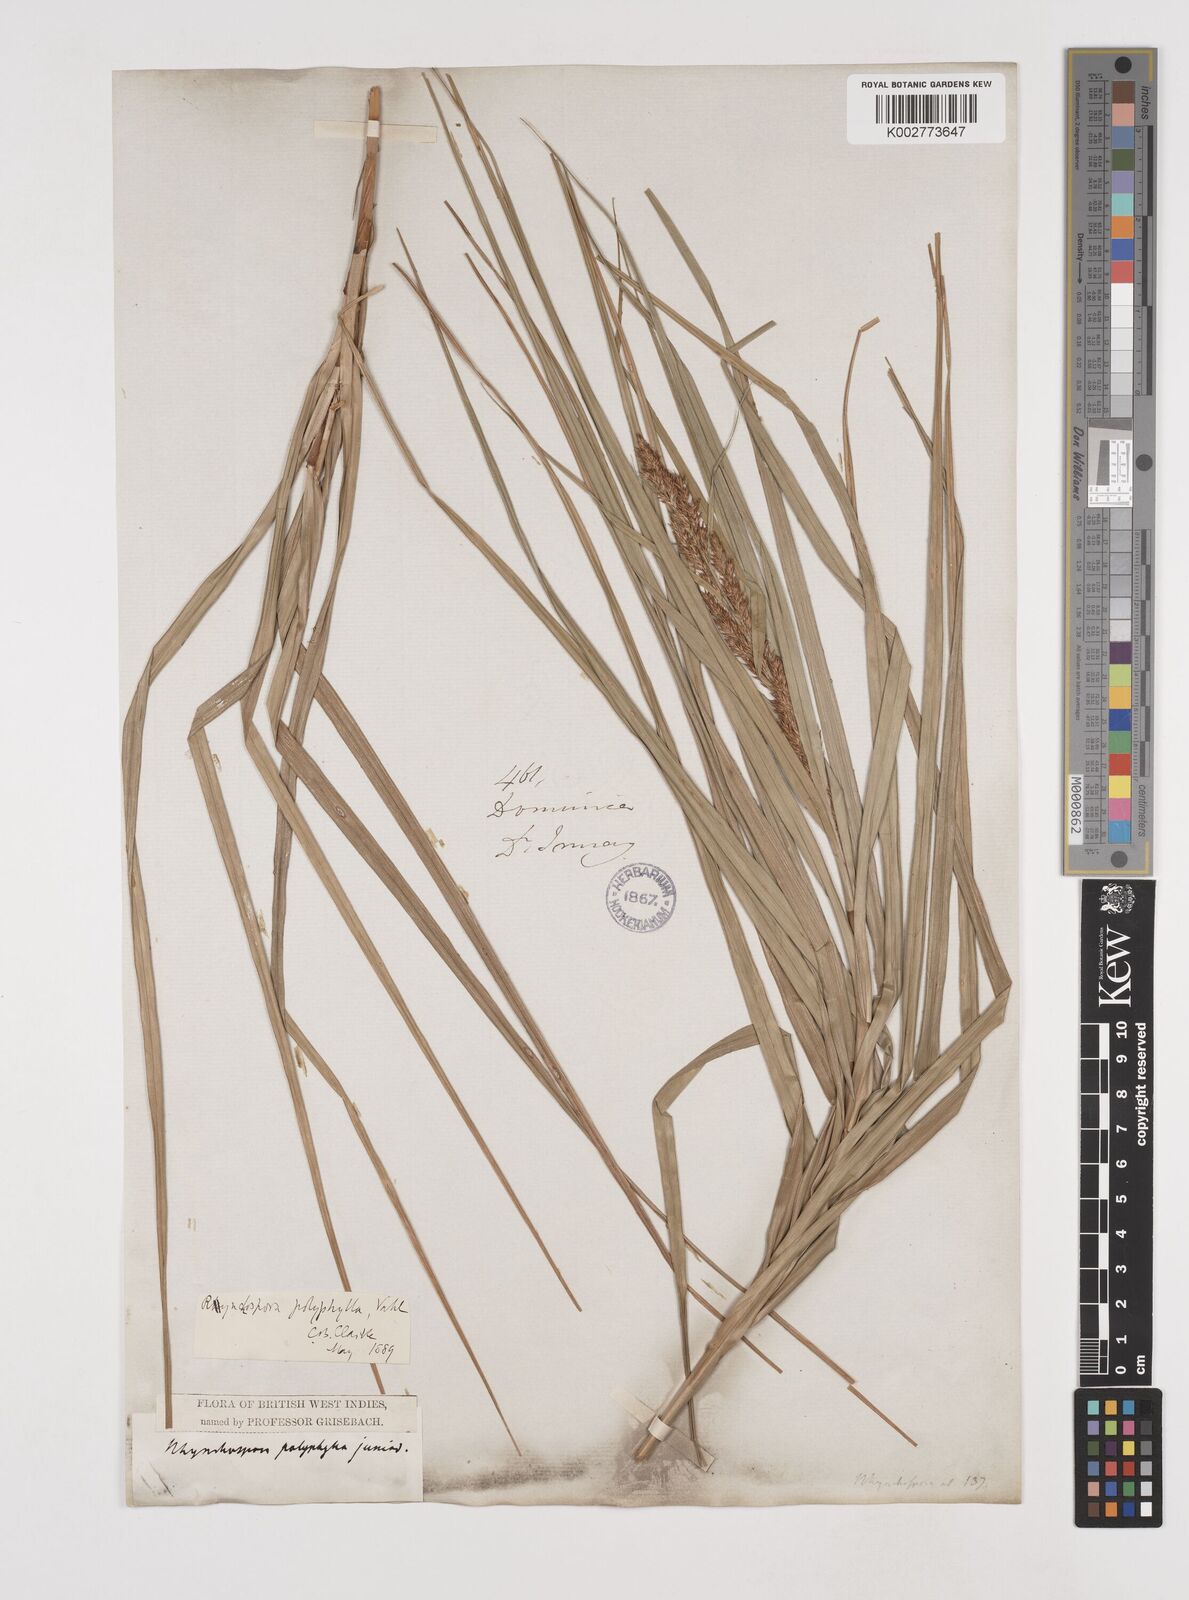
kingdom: Plantae
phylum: Tracheophyta
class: Liliopsida
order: Poales
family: Cyperaceae
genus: Rhynchospora
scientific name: Rhynchospora polyphylla
